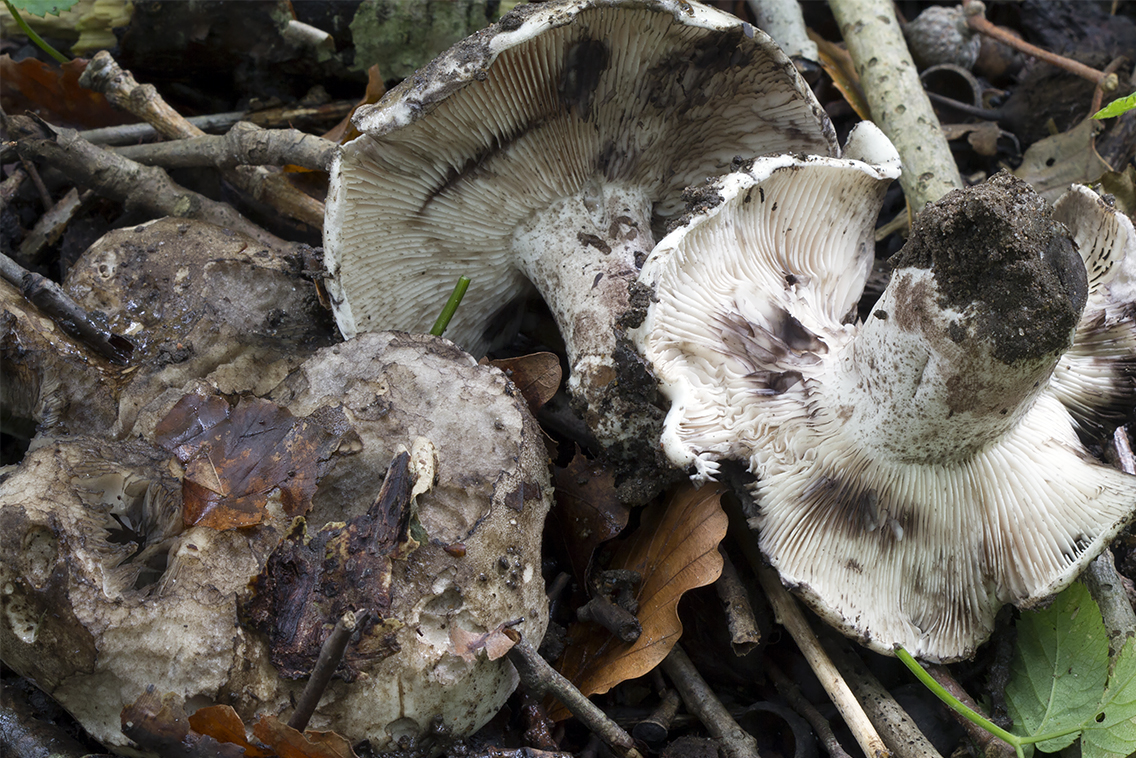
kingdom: Fungi
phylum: Basidiomycota
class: Agaricomycetes
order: Russulales
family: Russulaceae
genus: Russula
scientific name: Russula atramentosa
